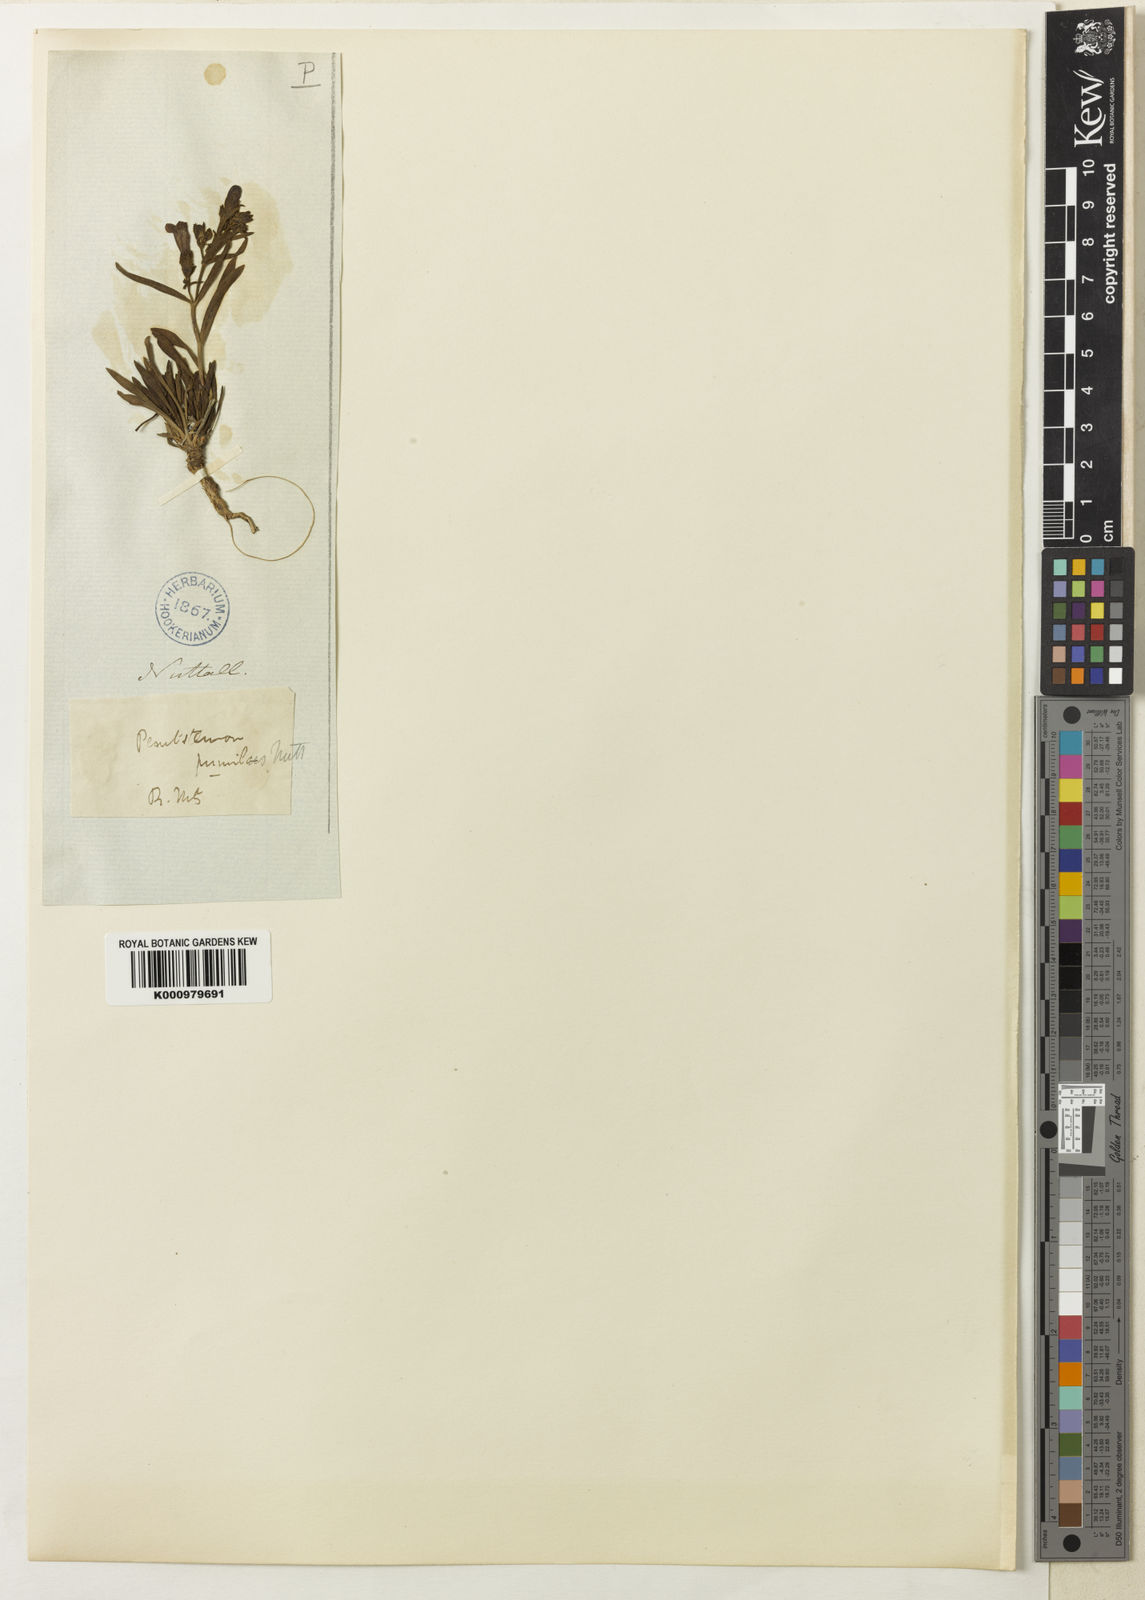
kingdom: Plantae
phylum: Tracheophyta
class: Magnoliopsida
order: Lamiales
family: Plantaginaceae
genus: Penstemon
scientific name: Penstemon pumilus
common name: Dwarf penstemon
